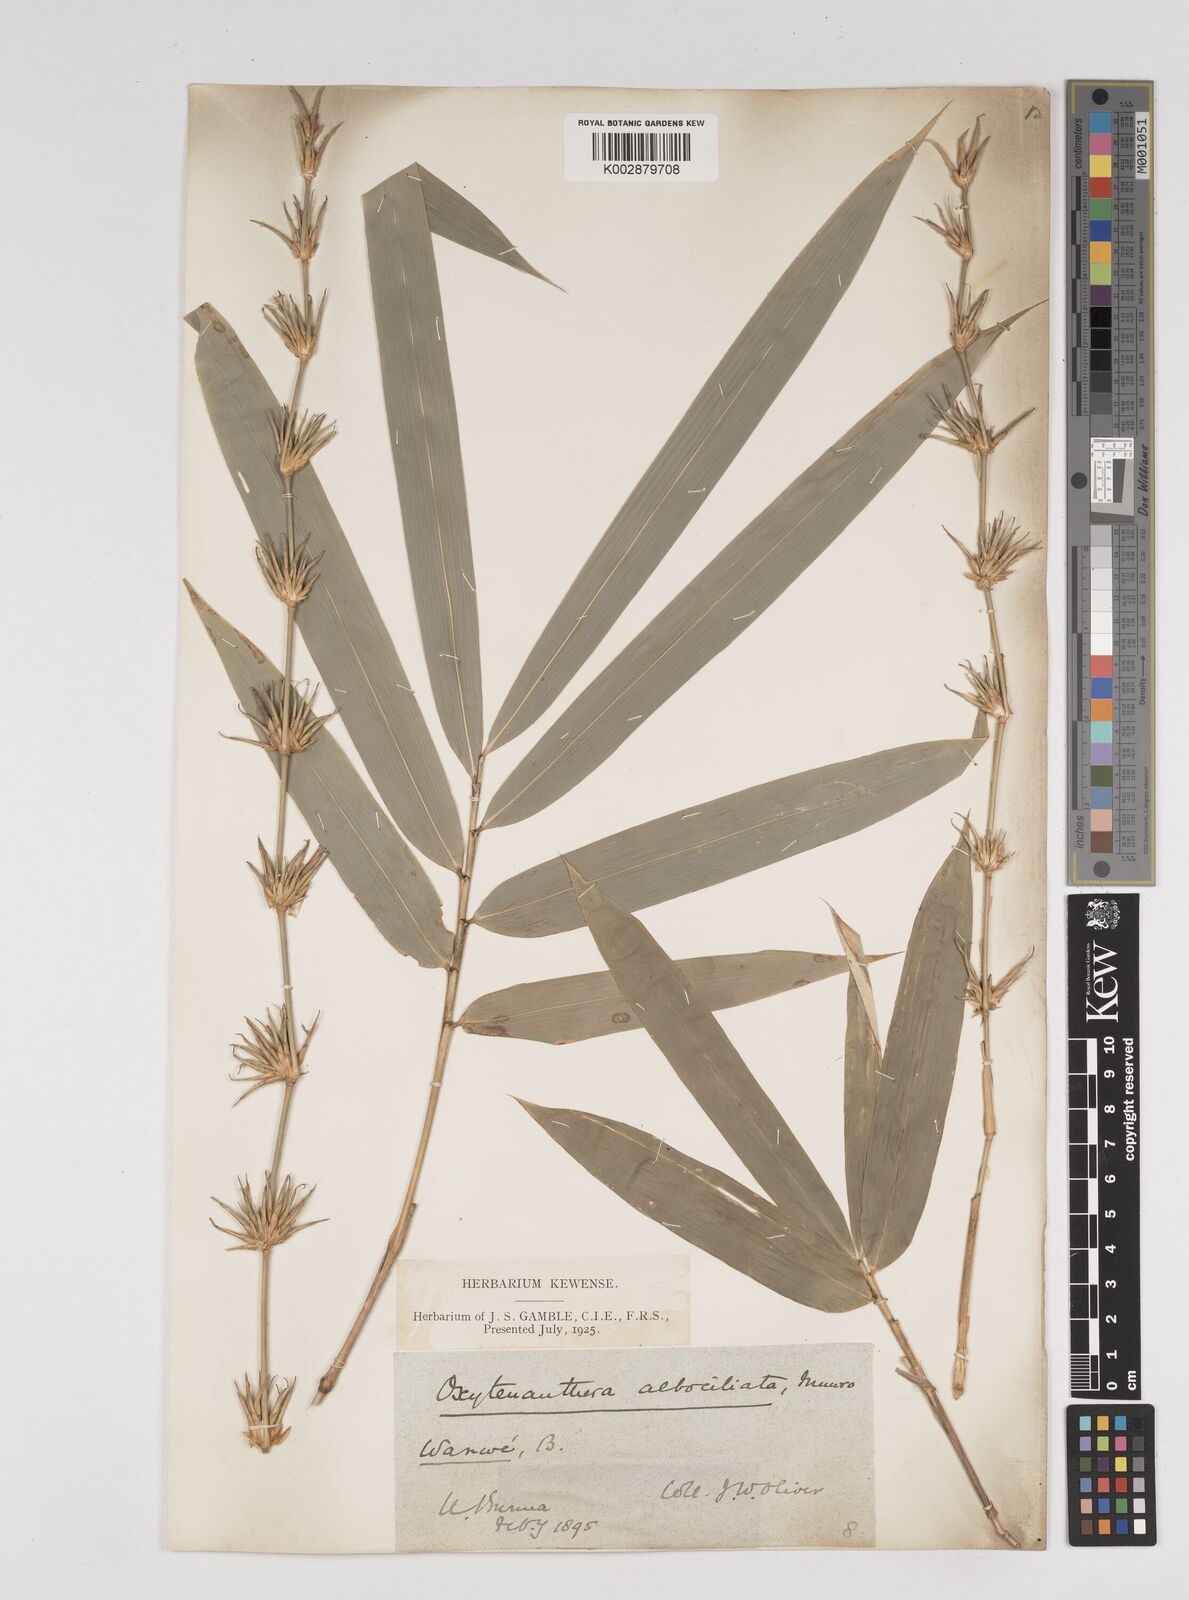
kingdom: Plantae
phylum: Tracheophyta
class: Liliopsida
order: Poales
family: Poaceae
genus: Gigantochloa
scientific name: Gigantochloa albociliata
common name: White-fringe gigantochloa
